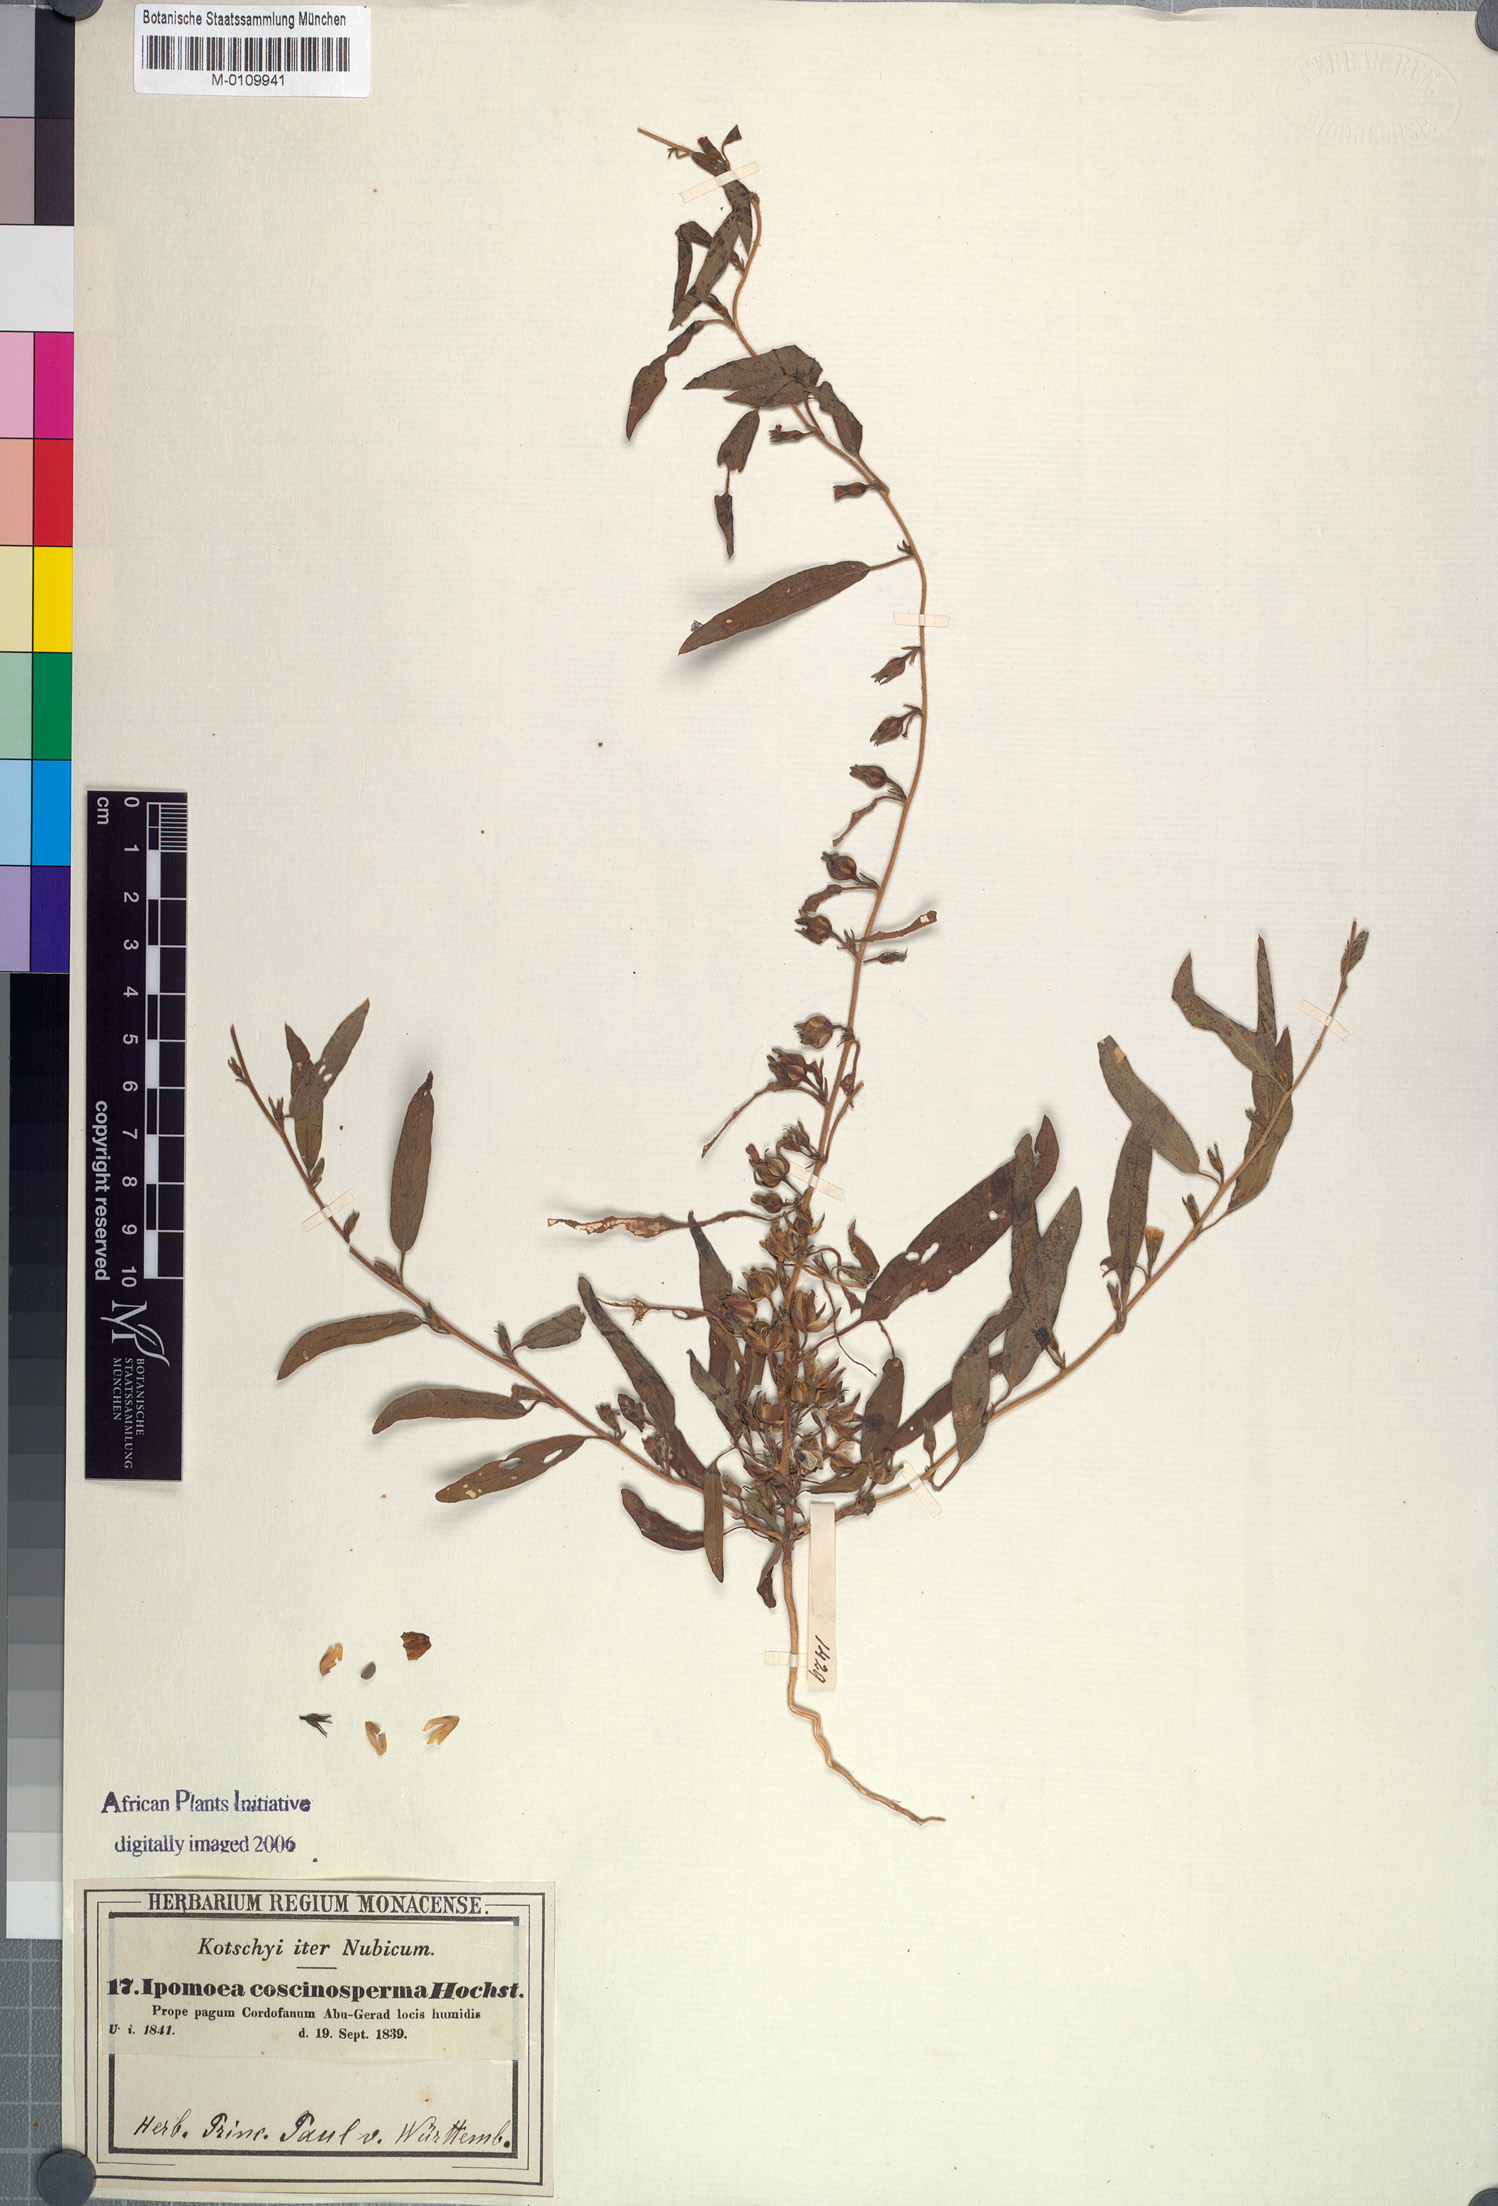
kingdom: Plantae
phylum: Tracheophyta
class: Magnoliopsida
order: Solanales
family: Convolvulaceae
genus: Ipomoea
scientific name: Ipomoea coscinosperma
